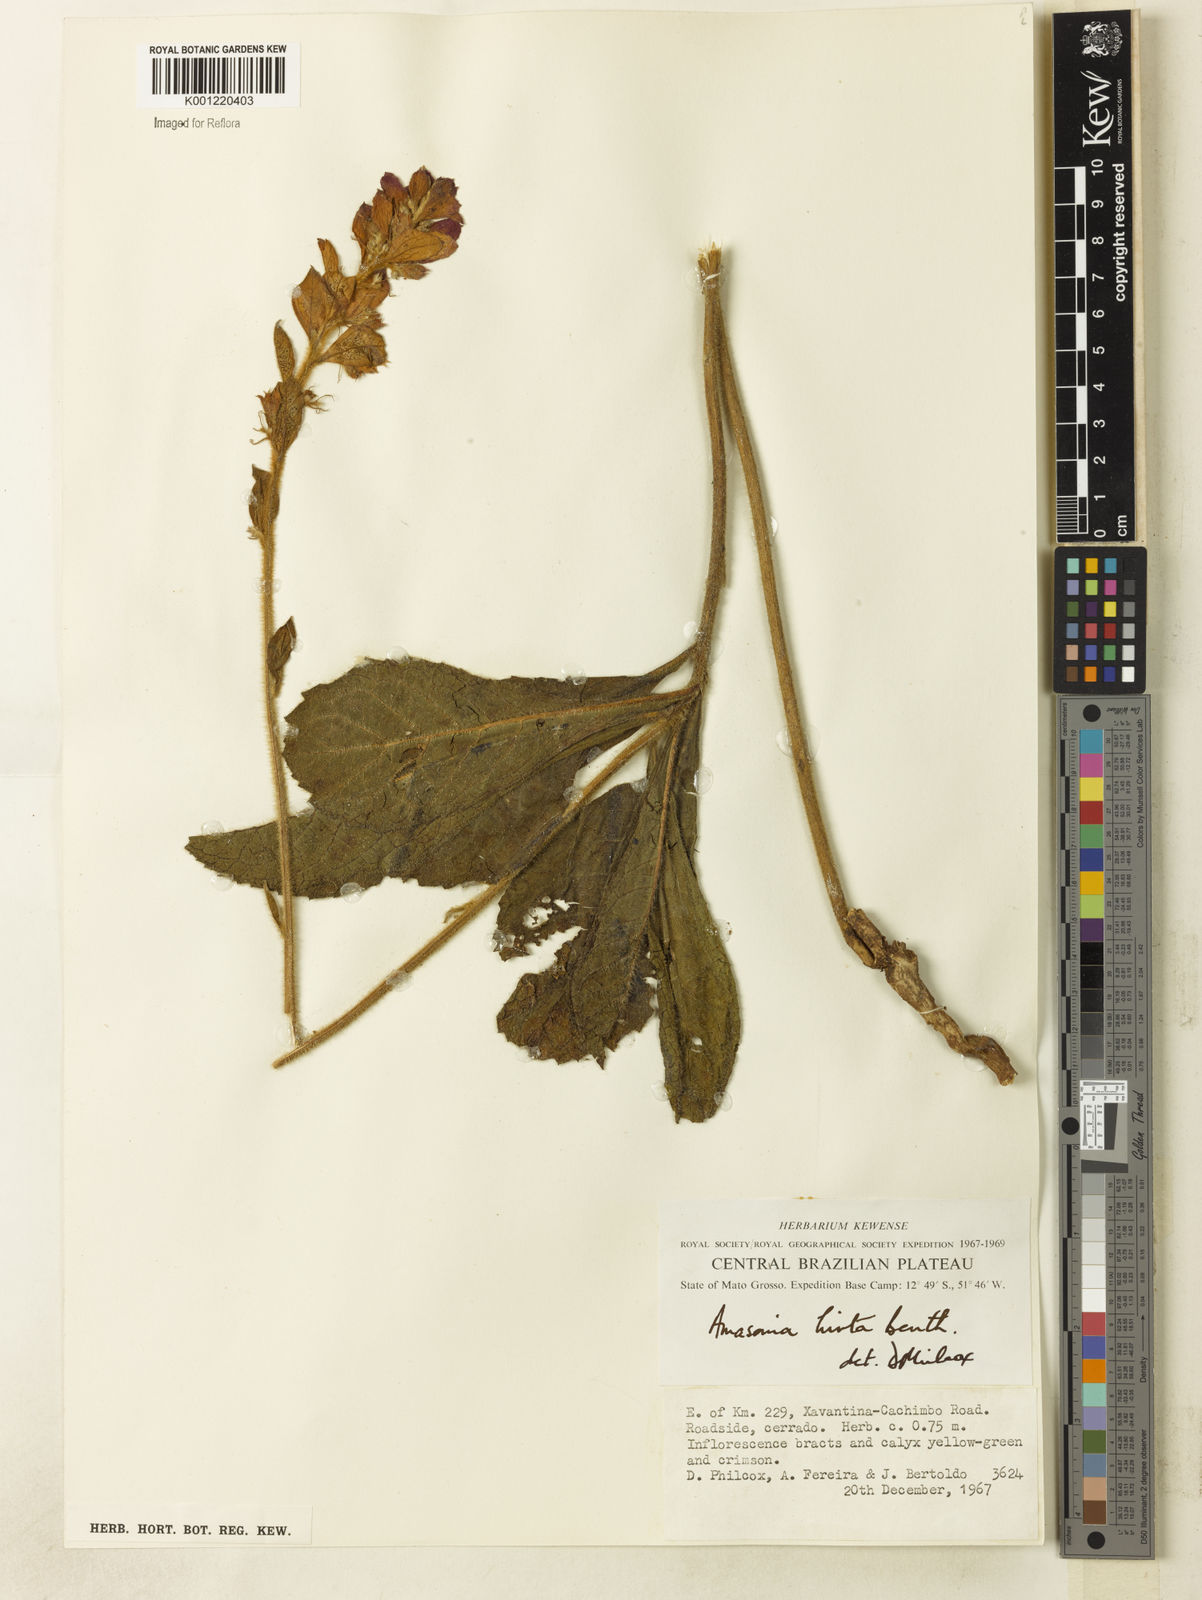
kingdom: Plantae
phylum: Tracheophyta
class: Magnoliopsida
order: Lamiales
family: Lamiaceae
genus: Amasonia
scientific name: Amasonia hirta
